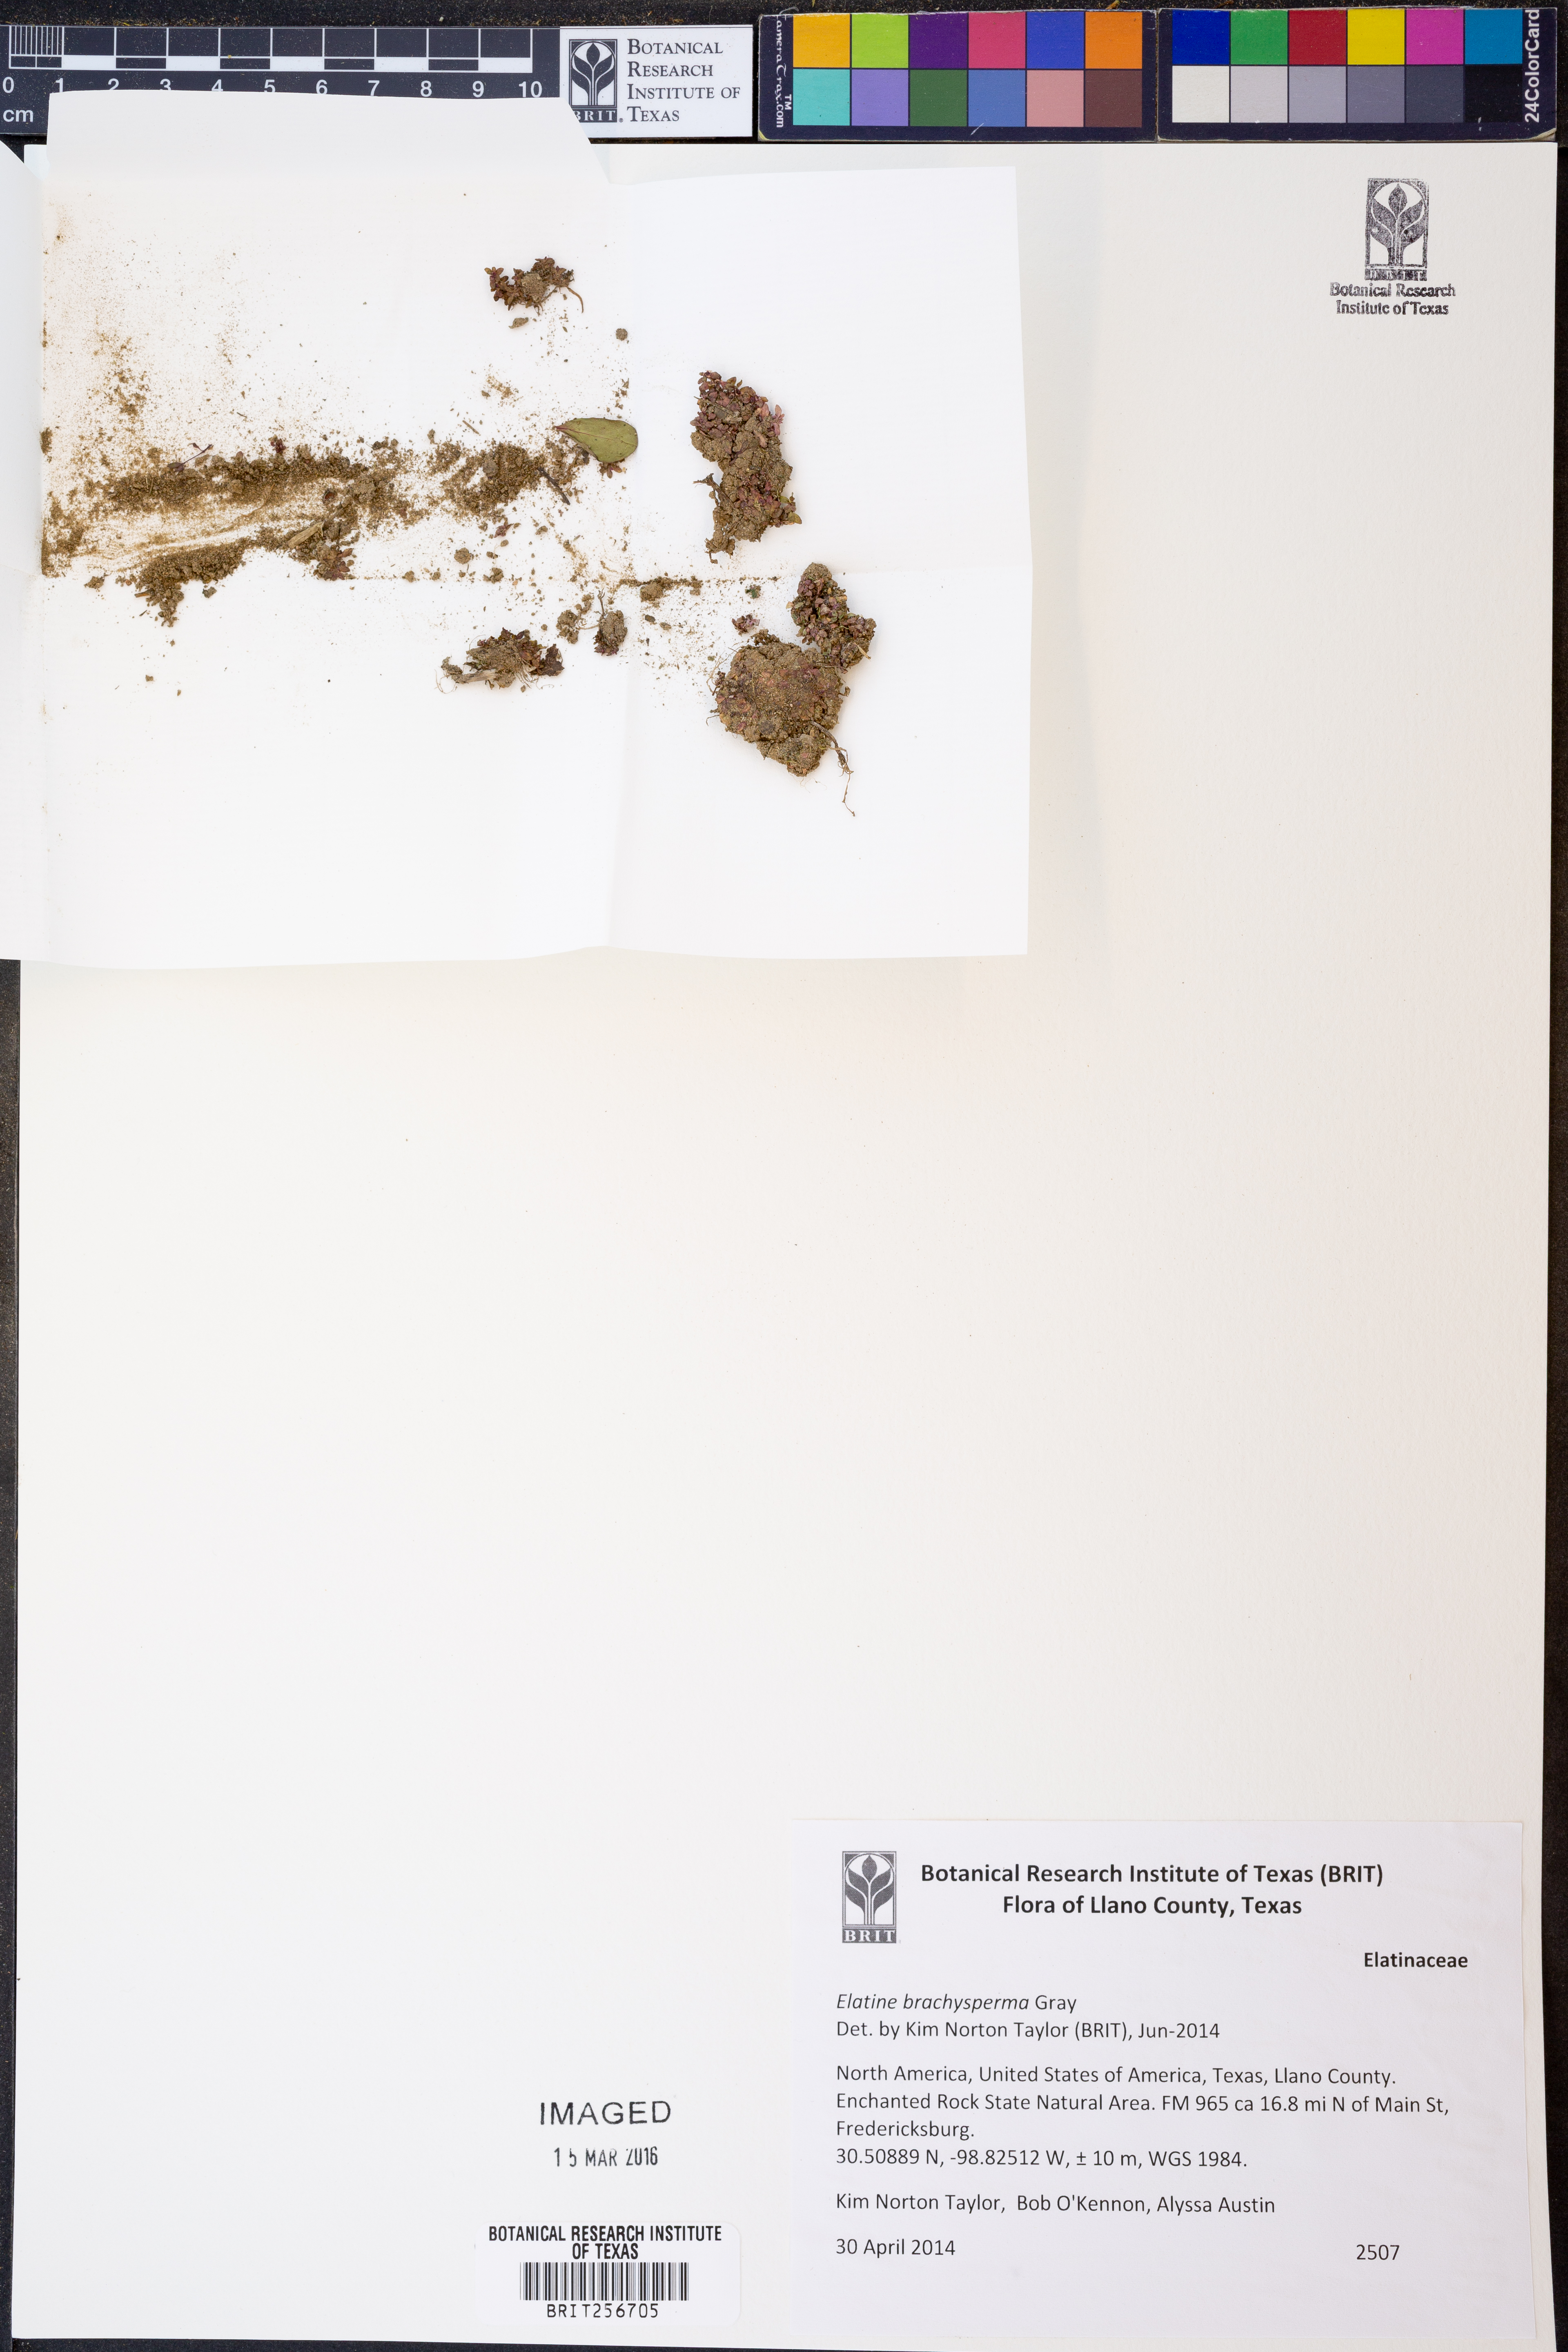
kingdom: Plantae
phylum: Tracheophyta
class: Magnoliopsida
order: Malpighiales
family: Elatinaceae
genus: Elatine
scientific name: Elatine brachysperma
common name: Short-fruited waterwort
